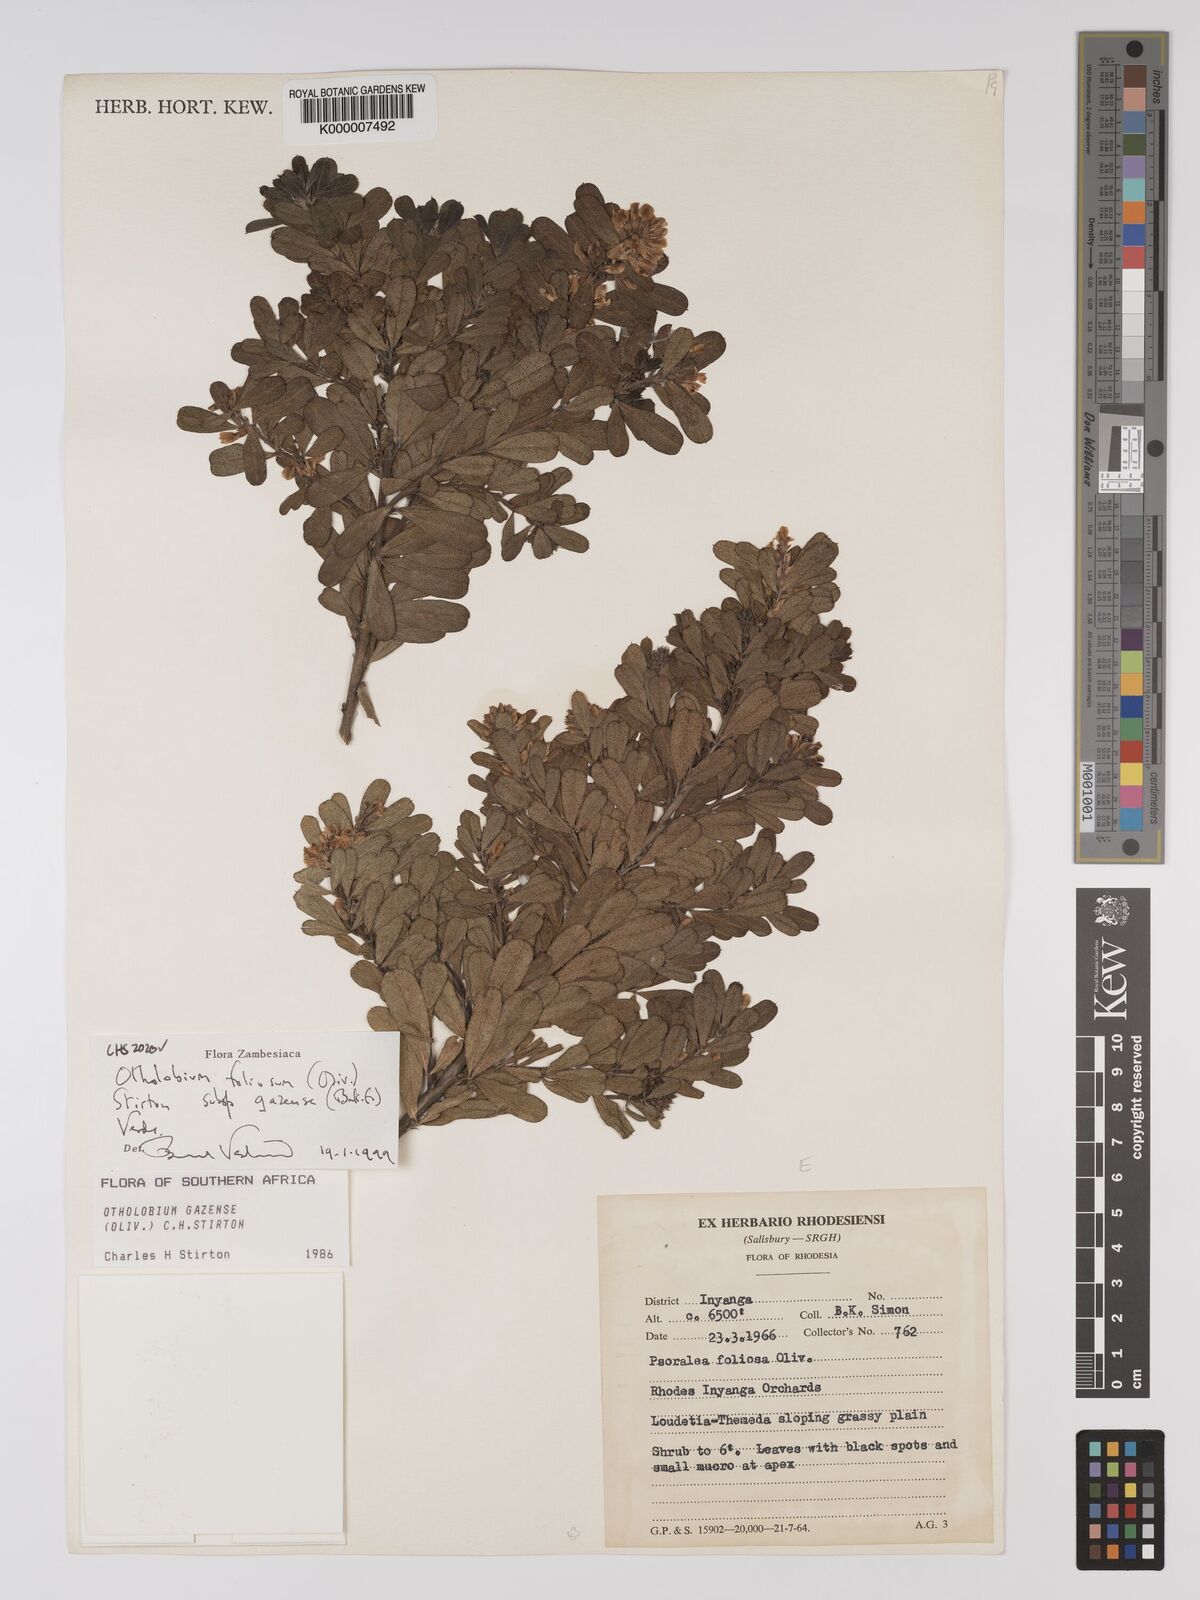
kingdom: Plantae
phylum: Tracheophyta
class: Magnoliopsida
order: Fabales
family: Fabaceae
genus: Psoralea
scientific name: Psoralea foliosa
